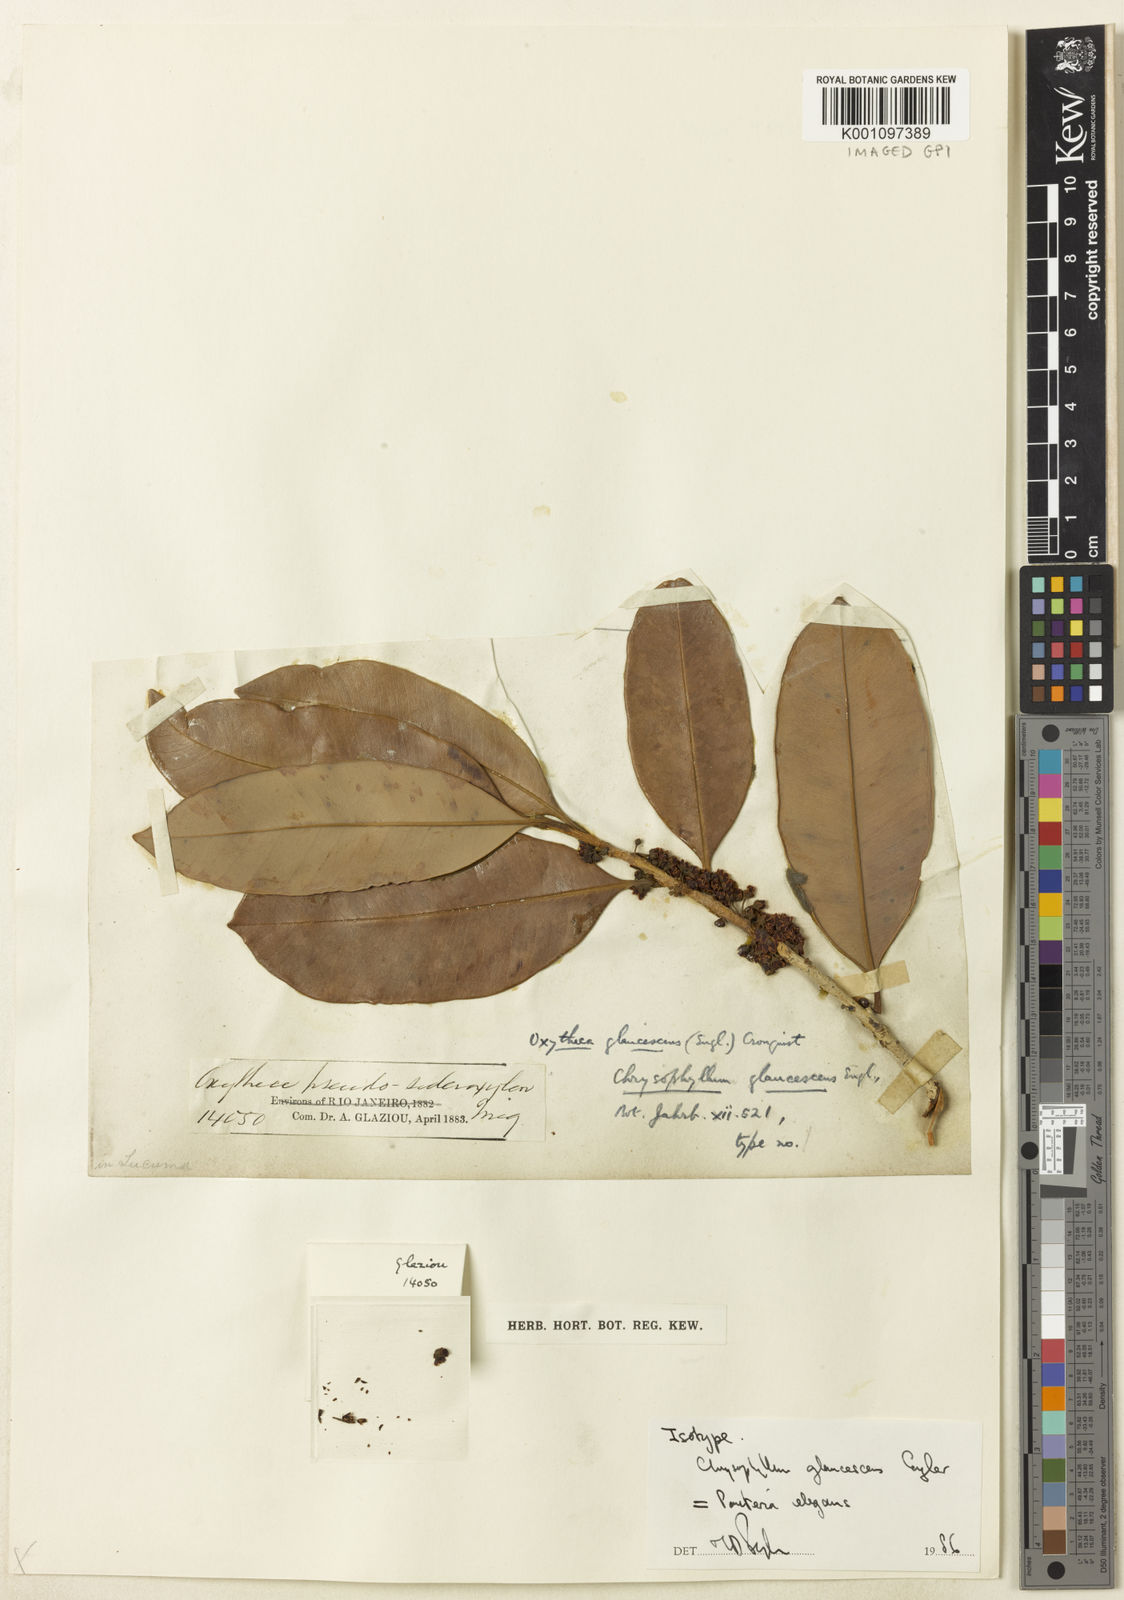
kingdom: Plantae
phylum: Tracheophyta
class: Magnoliopsida
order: Ericales
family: Sapotaceae
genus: Pouteria
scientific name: Pouteria elegans
